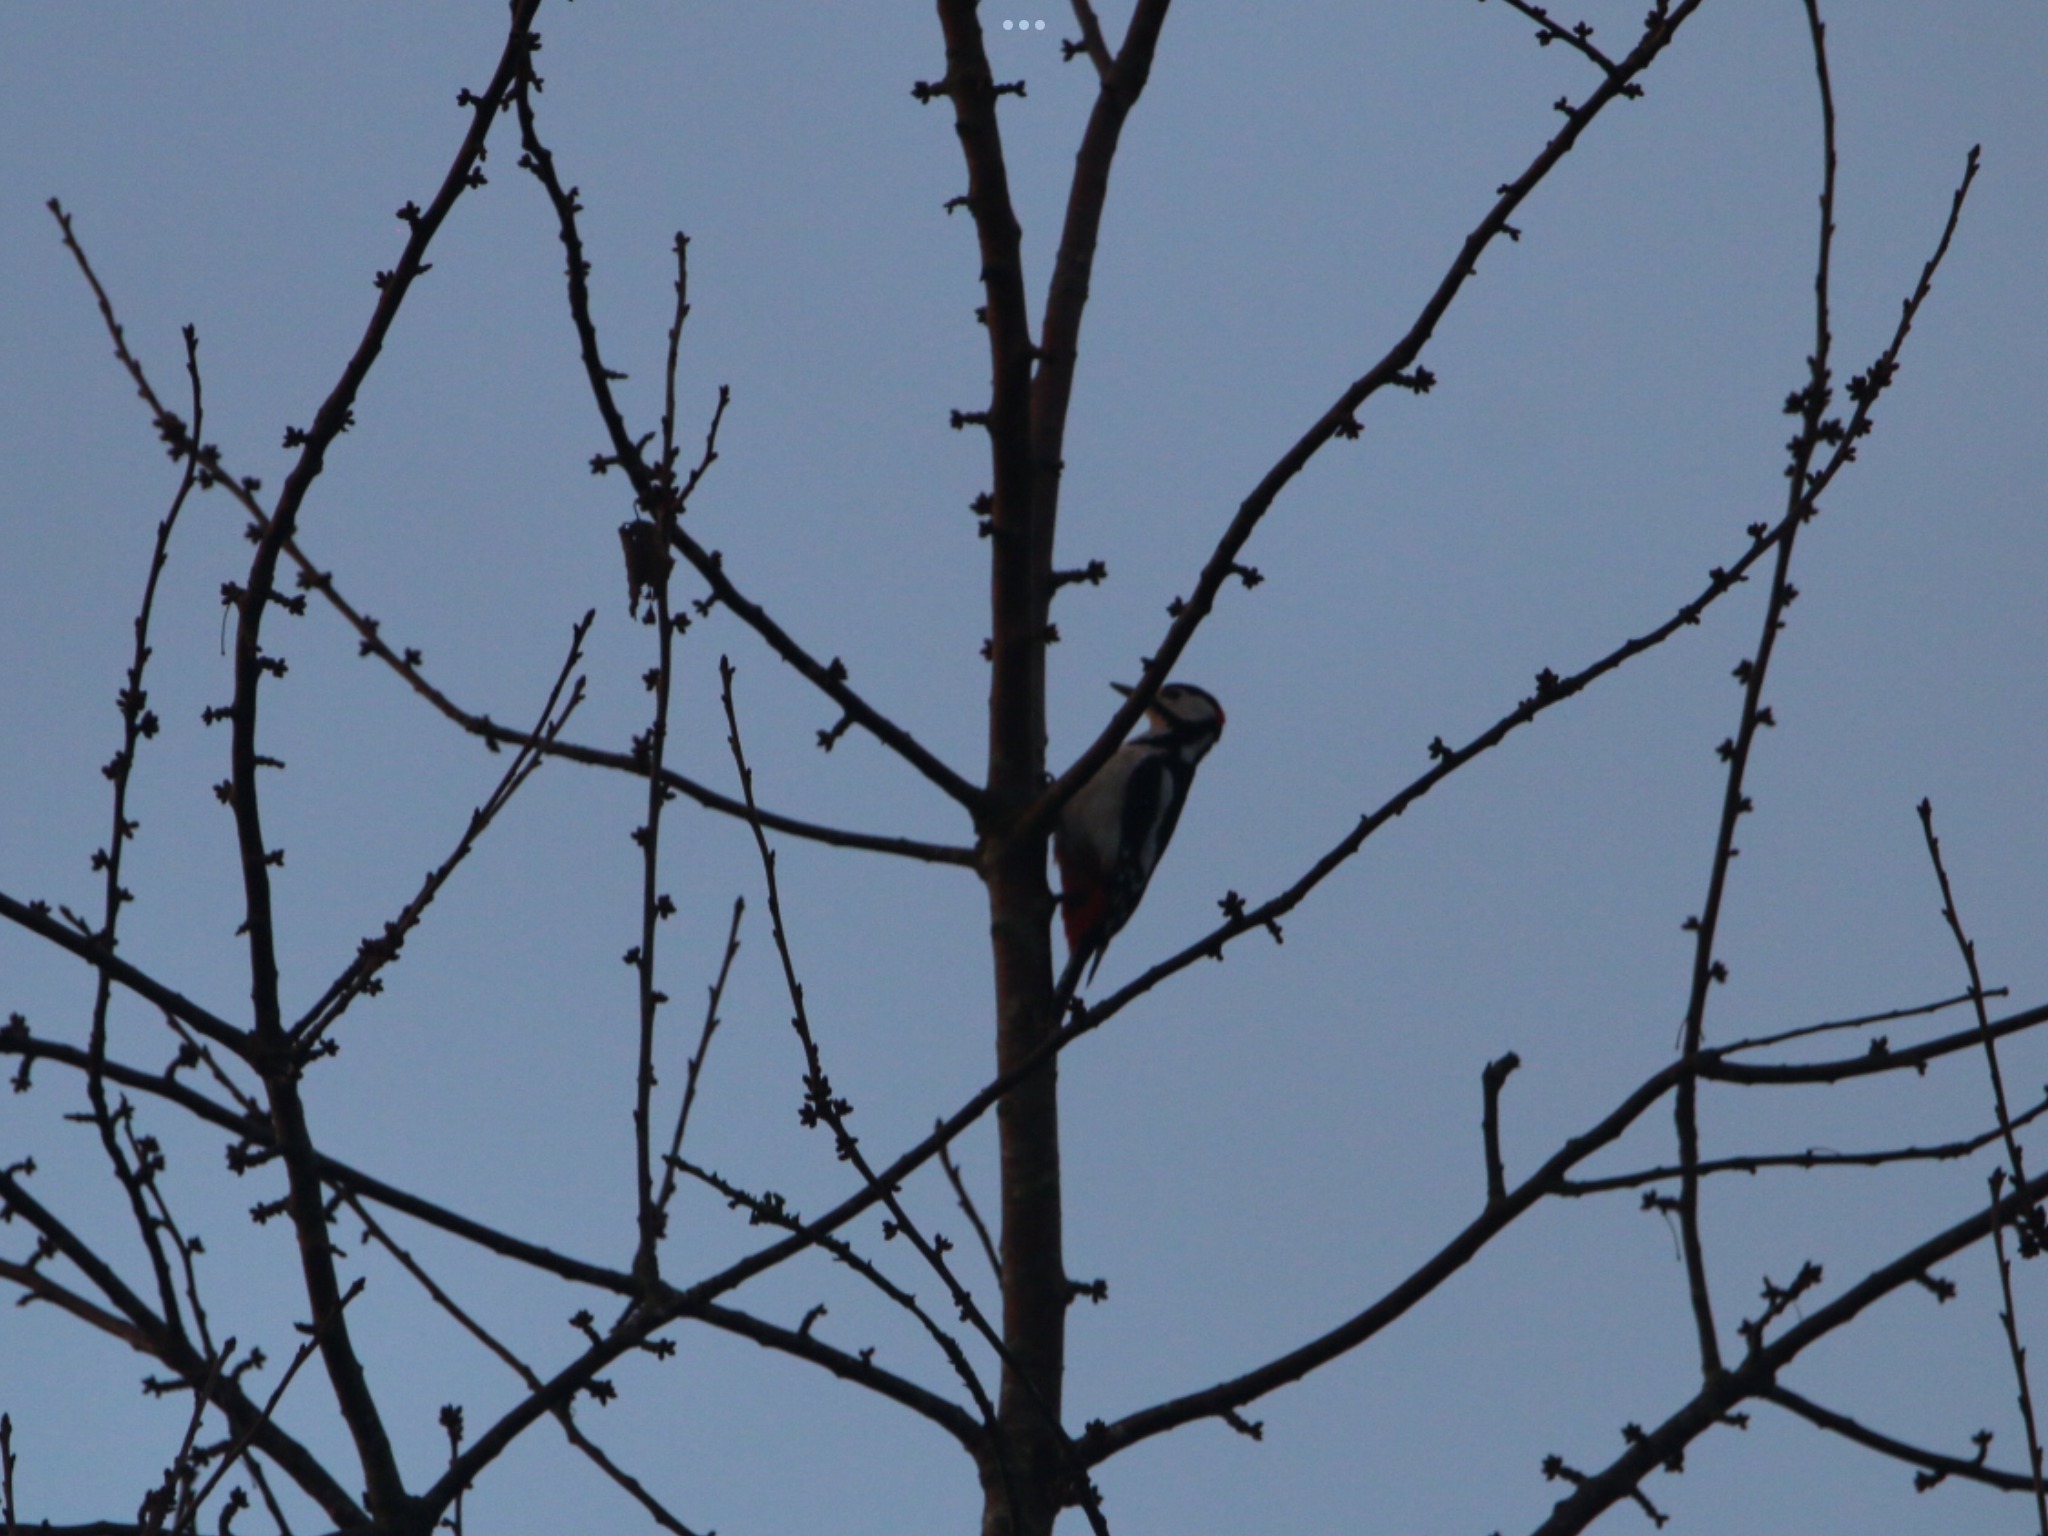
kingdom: Animalia
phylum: Chordata
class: Aves
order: Piciformes
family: Picidae
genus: Dendrocopos
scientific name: Dendrocopos major
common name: Stor flagspætte
